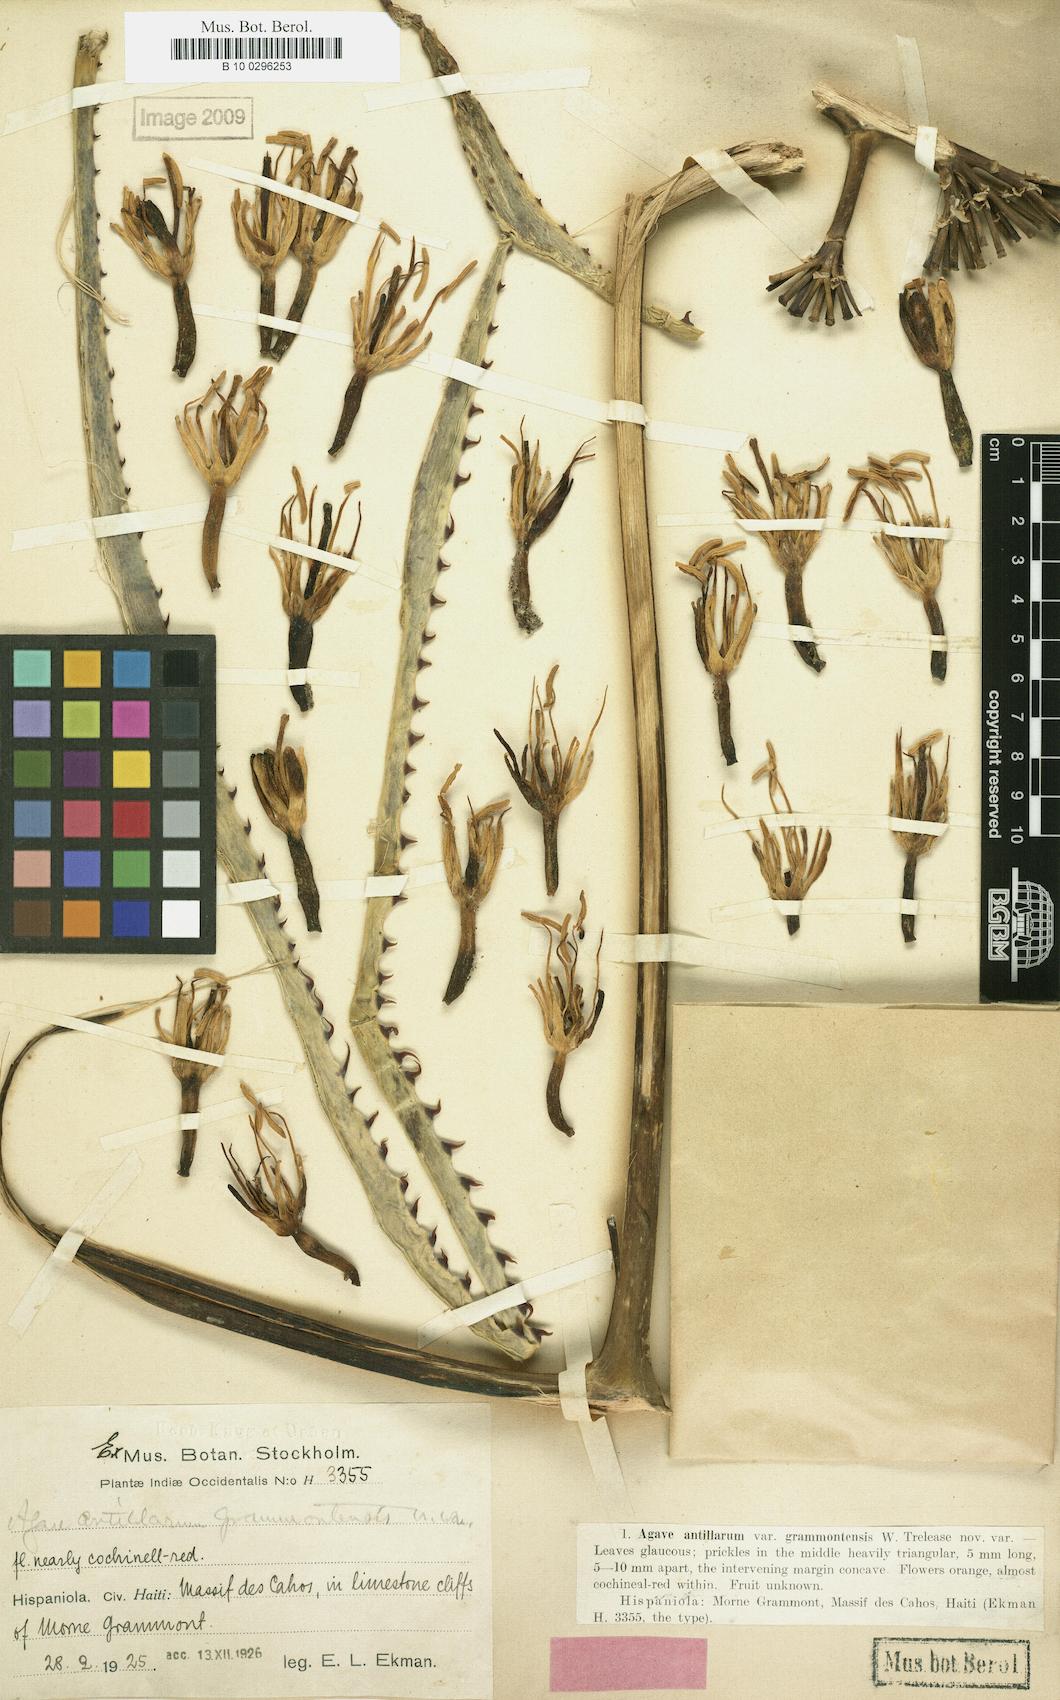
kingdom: Plantae
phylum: Tracheophyta
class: Liliopsida
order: Asparagales
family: Asparagaceae
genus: Agave
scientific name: Agave antillarum
